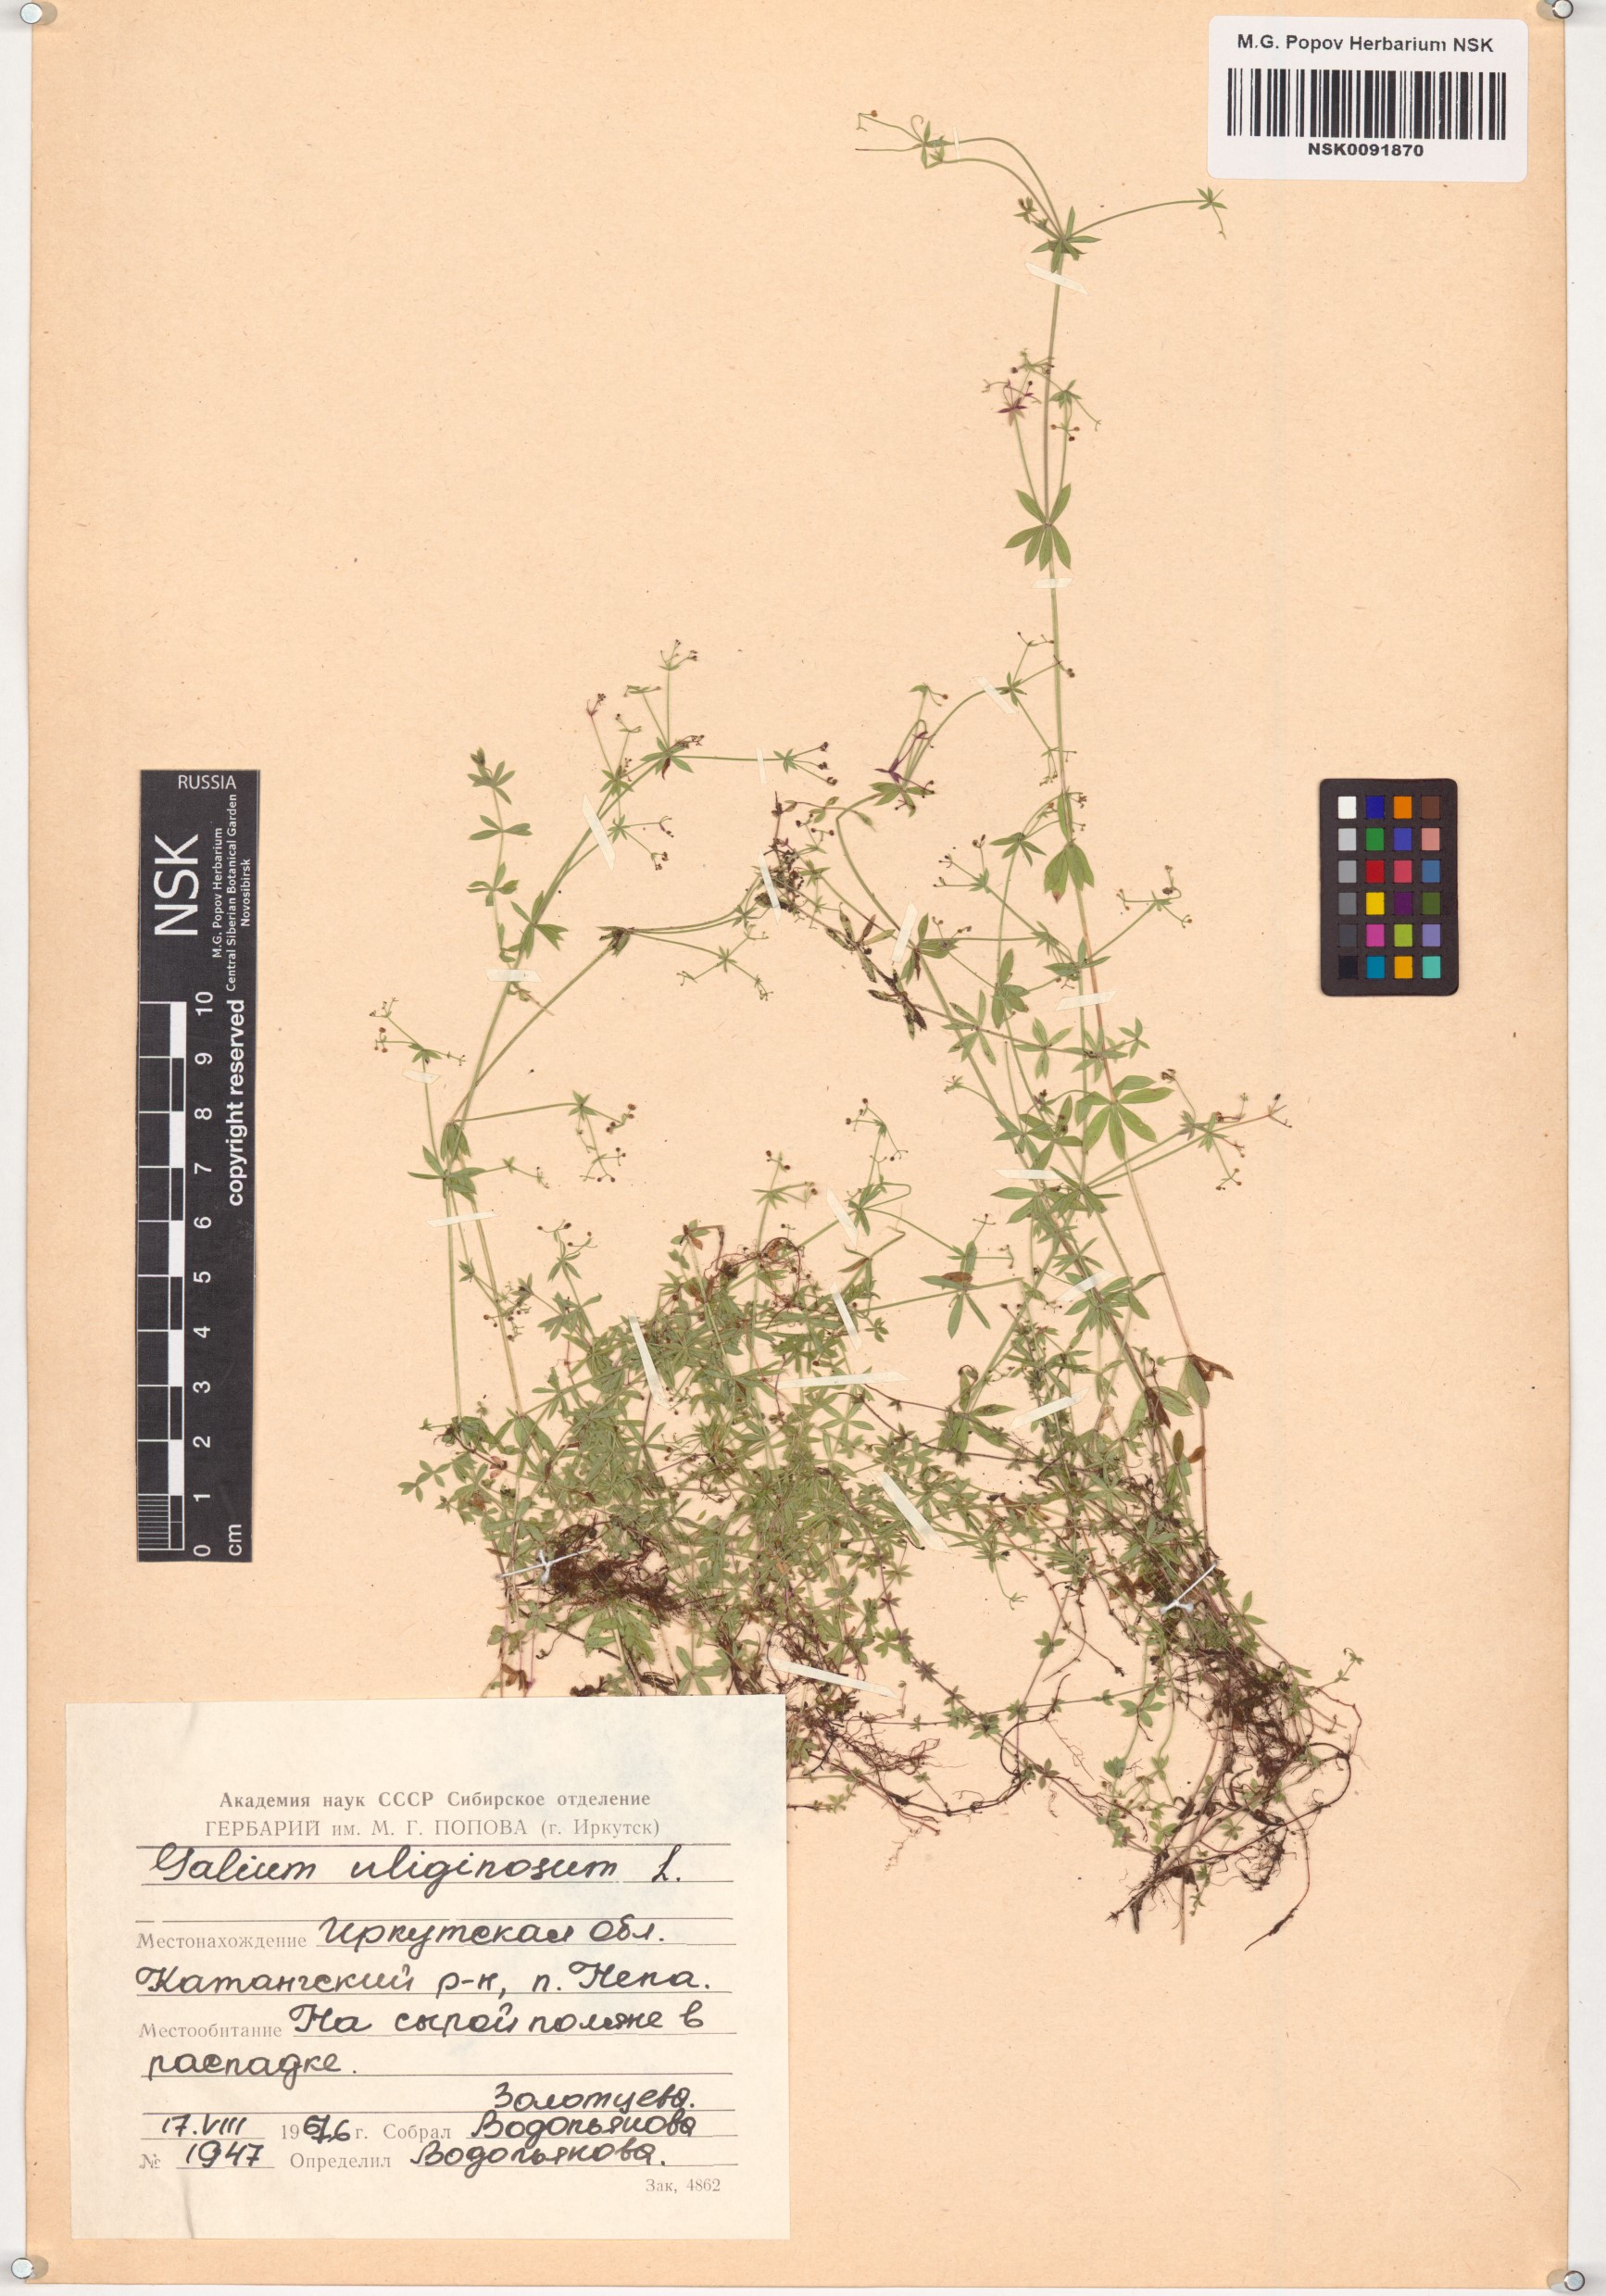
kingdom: Plantae
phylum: Tracheophyta
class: Magnoliopsida
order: Gentianales
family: Rubiaceae
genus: Galium
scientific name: Galium uliginosum
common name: Fen bedstraw
